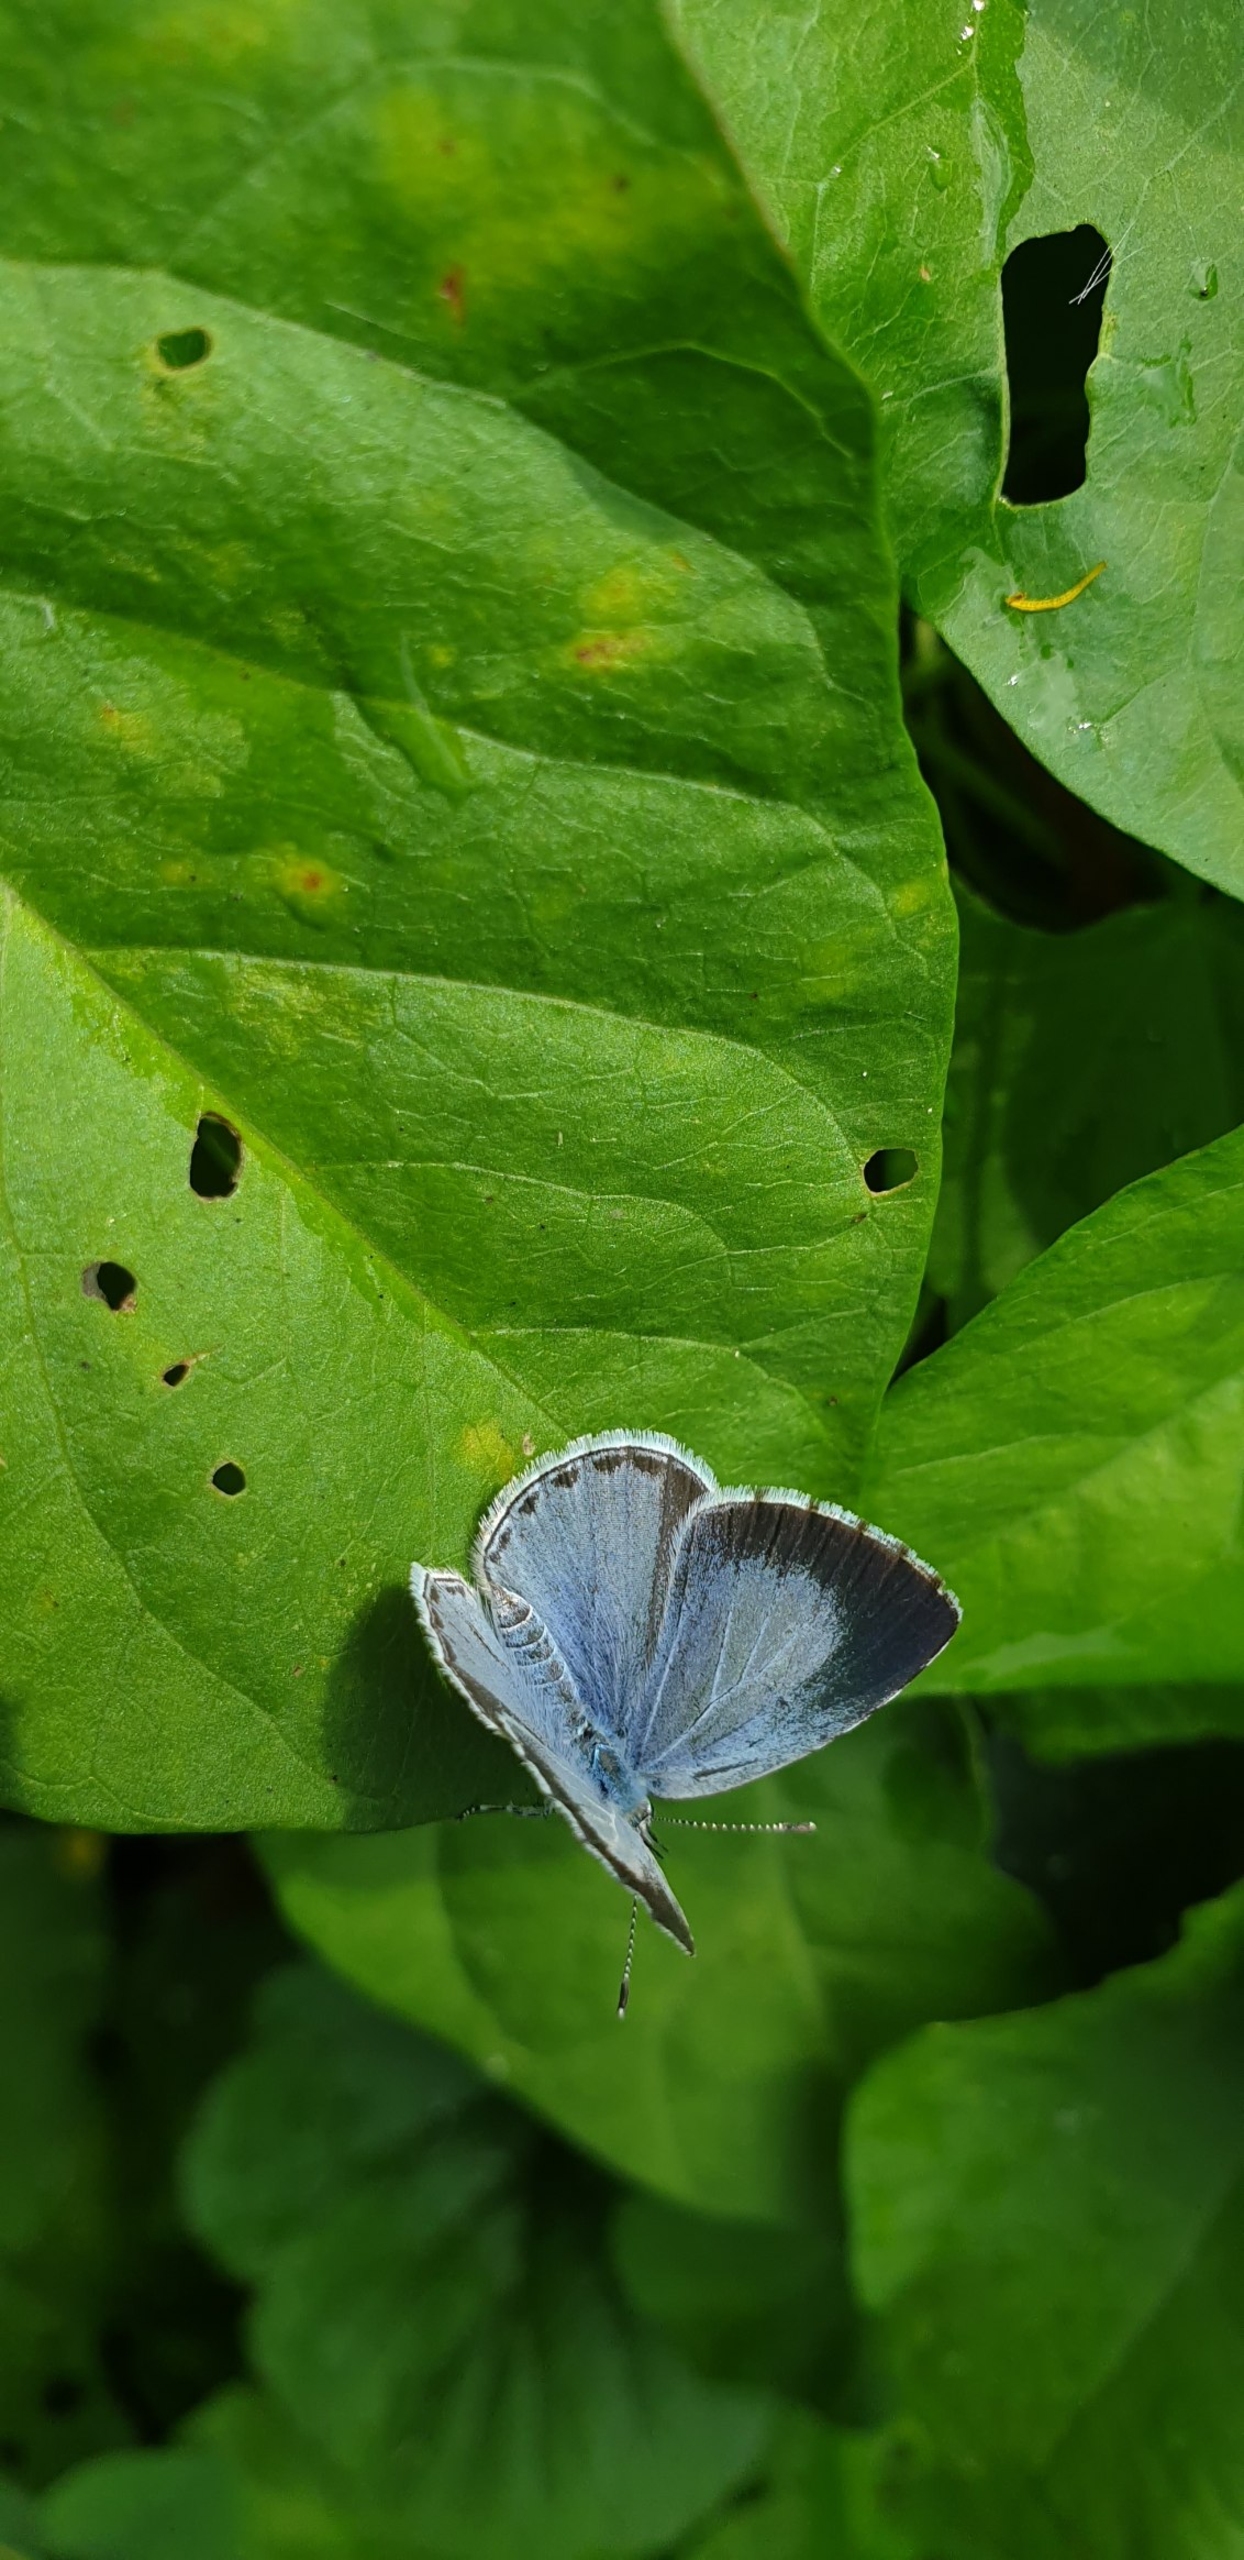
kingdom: Animalia
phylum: Arthropoda
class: Insecta
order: Lepidoptera
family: Lycaenidae
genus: Celastrina
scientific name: Celastrina argiolus
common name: Skovblåfugl
